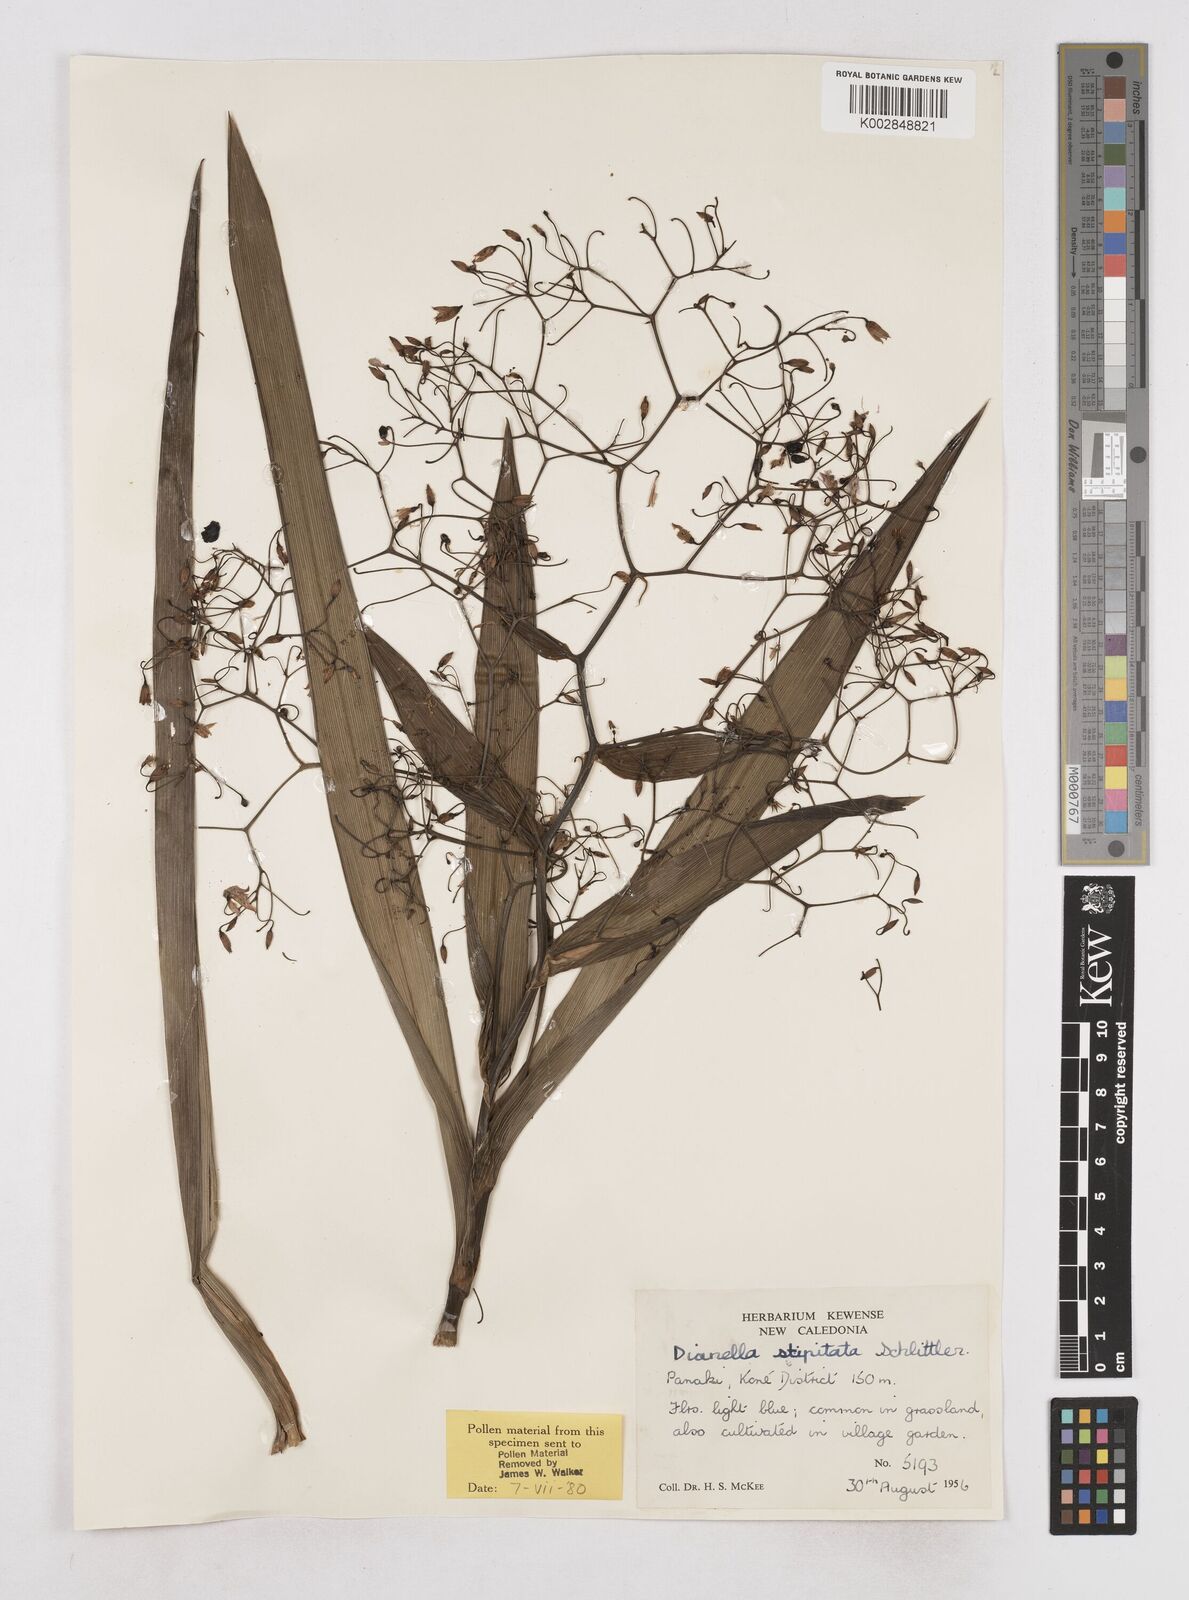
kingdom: Plantae
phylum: Tracheophyta
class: Liliopsida
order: Asparagales
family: Asphodelaceae
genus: Dianella
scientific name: Dianella stipitata
